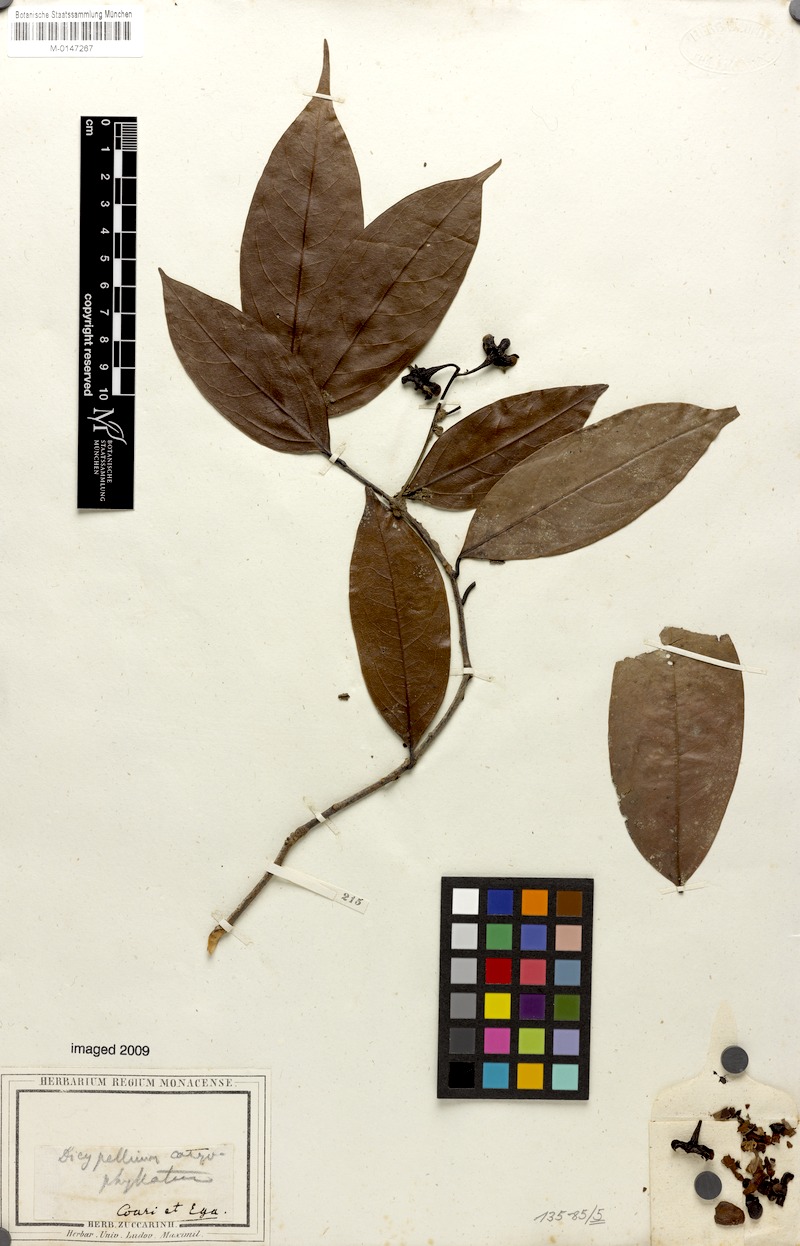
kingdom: Plantae
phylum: Tracheophyta
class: Magnoliopsida
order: Laurales
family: Lauraceae
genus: Dicypellium
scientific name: Dicypellium caryophyllaceum
